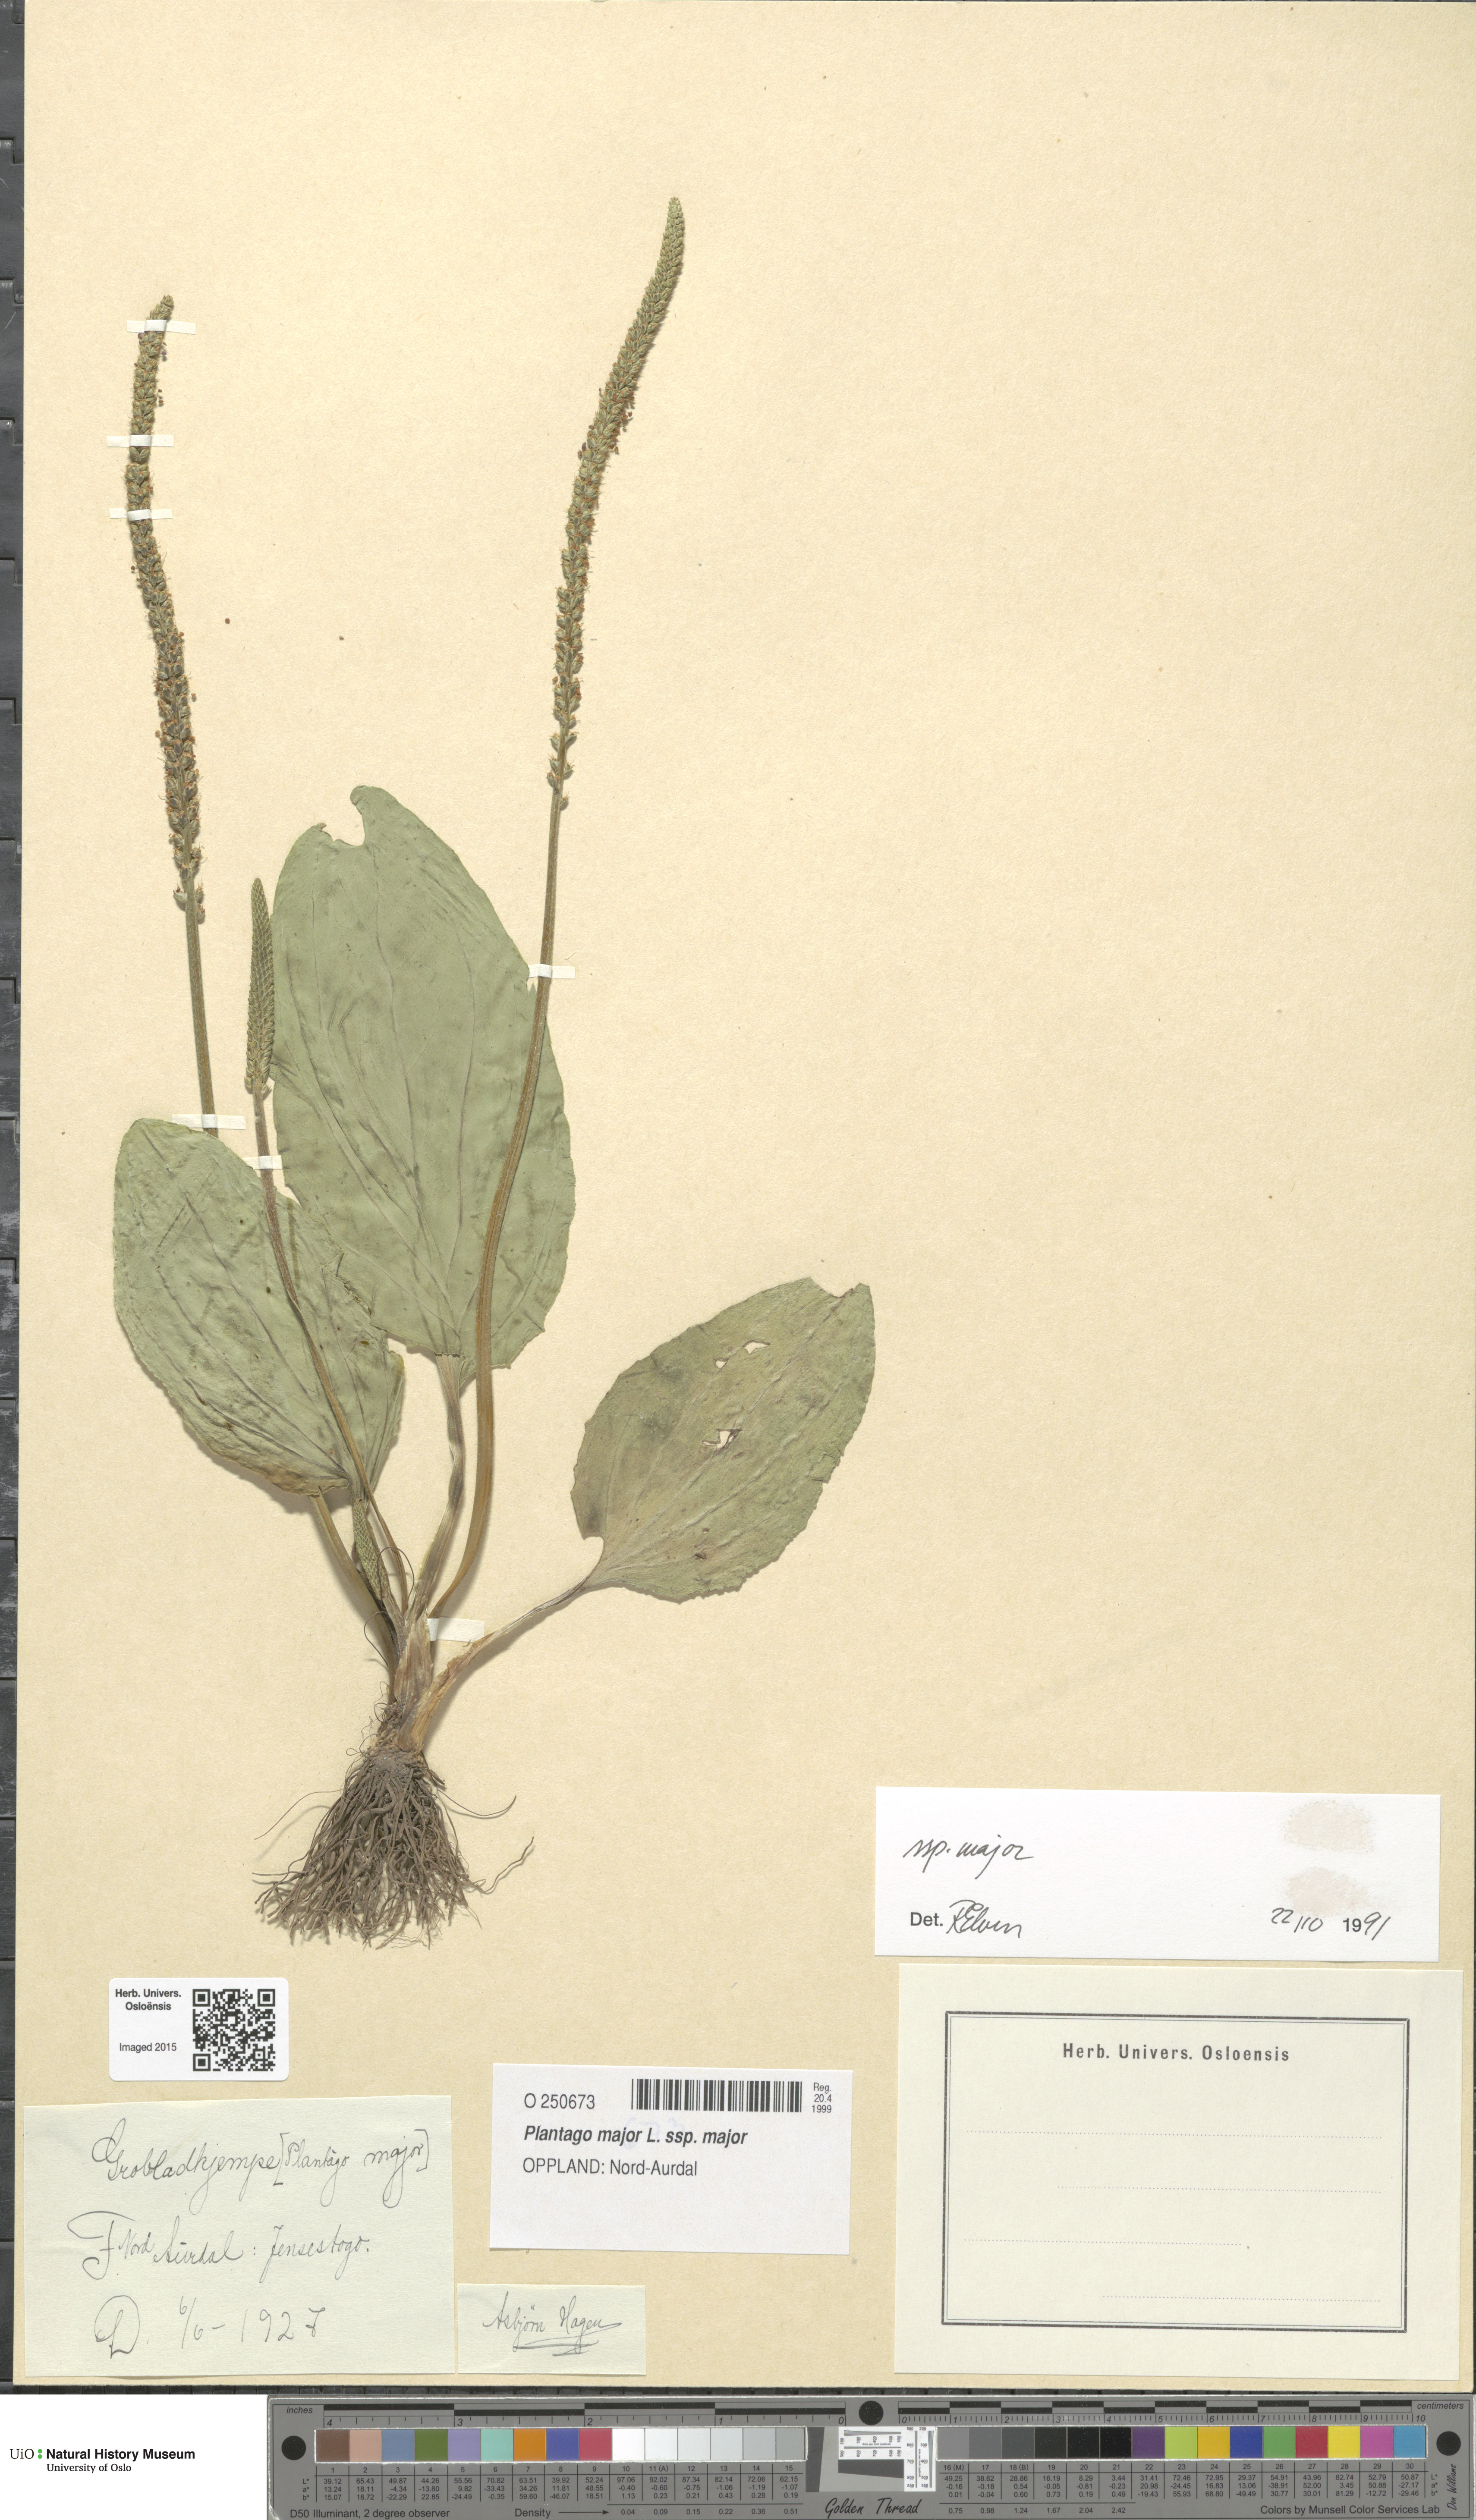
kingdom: Plantae
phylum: Tracheophyta
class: Magnoliopsida
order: Lamiales
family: Plantaginaceae
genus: Plantago
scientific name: Plantago major
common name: Common plantain
